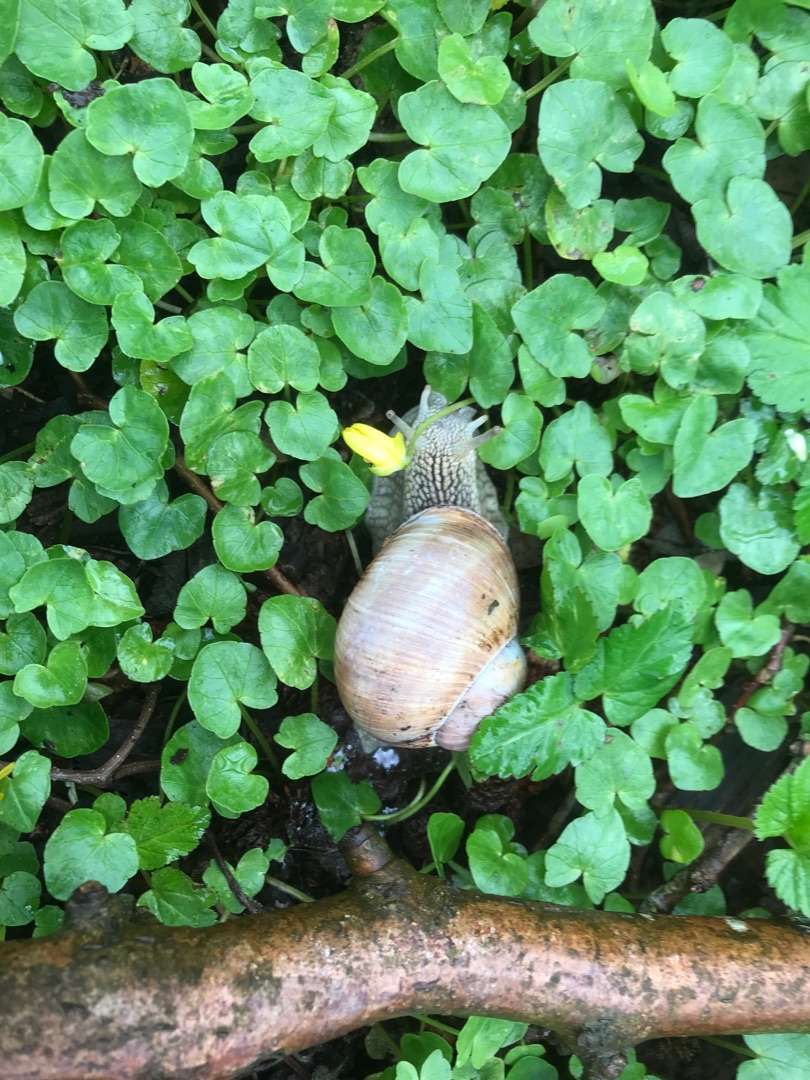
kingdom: Animalia
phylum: Mollusca
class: Gastropoda
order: Stylommatophora
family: Helicidae
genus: Helix
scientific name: Helix pomatia
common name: Vinbjergsnegl
